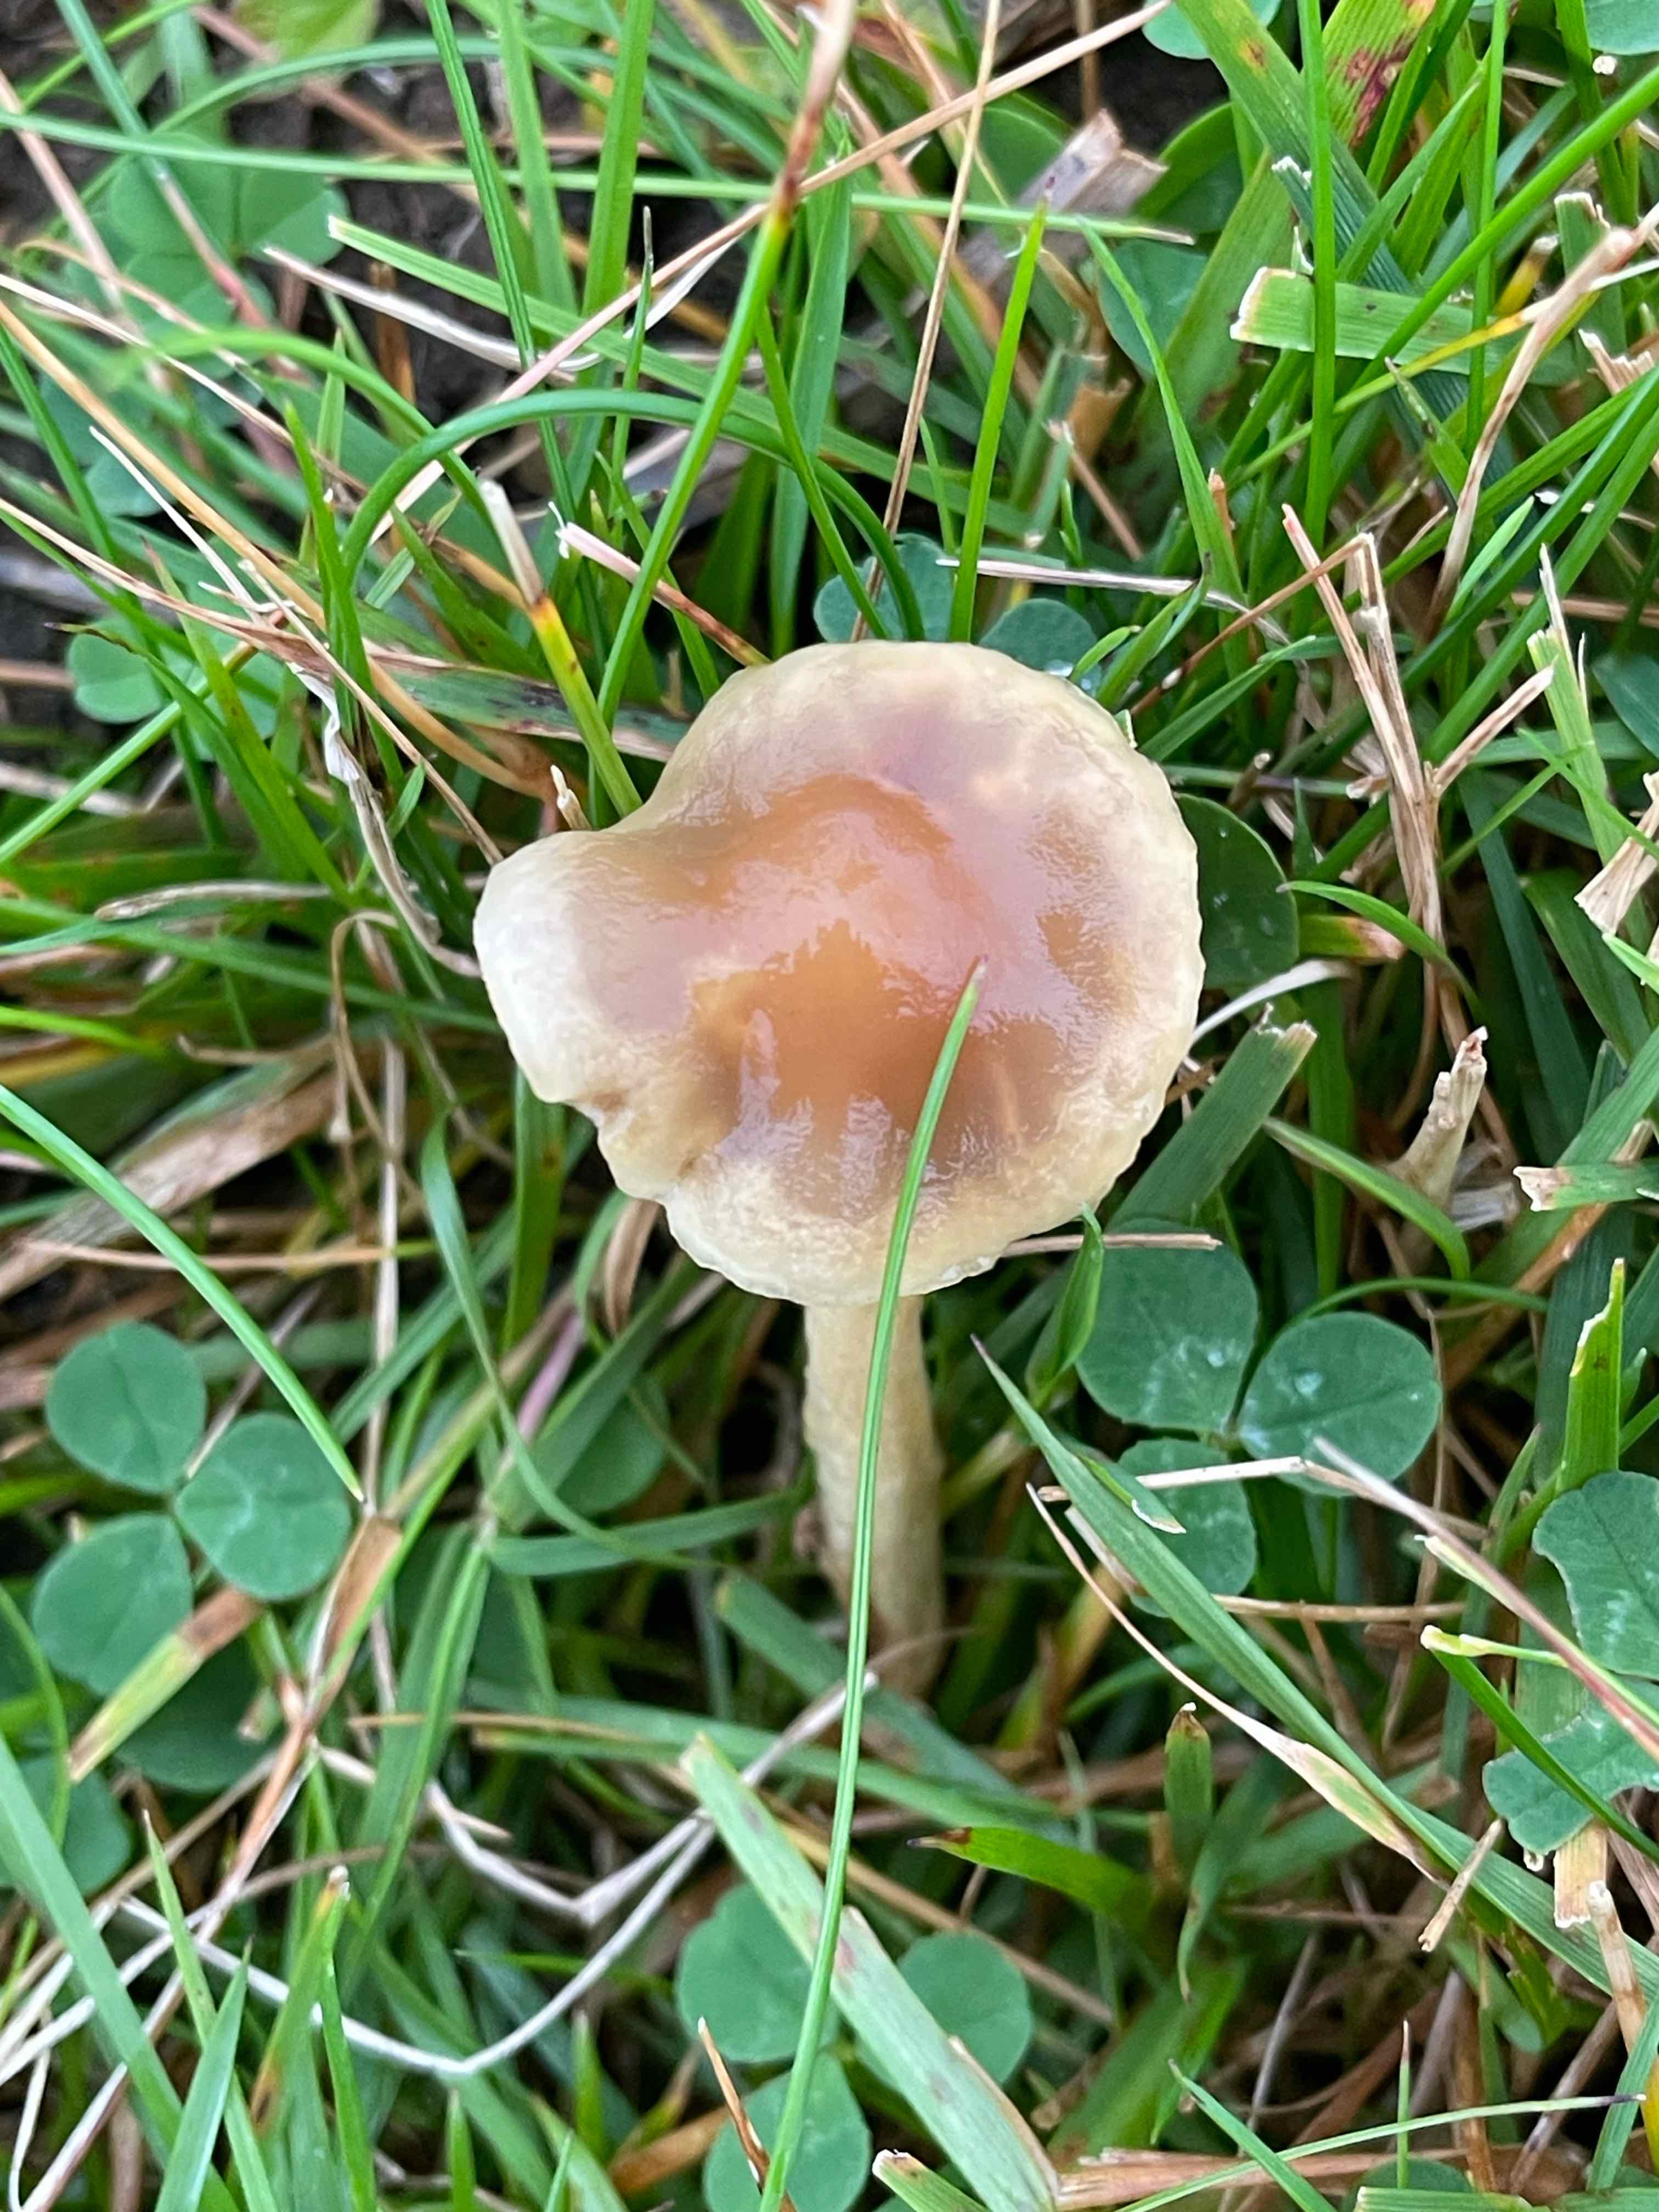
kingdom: Fungi
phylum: Basidiomycota
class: Agaricomycetes
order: Agaricales
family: Strophariaceae
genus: Protostropharia
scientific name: Protostropharia
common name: bredblad
